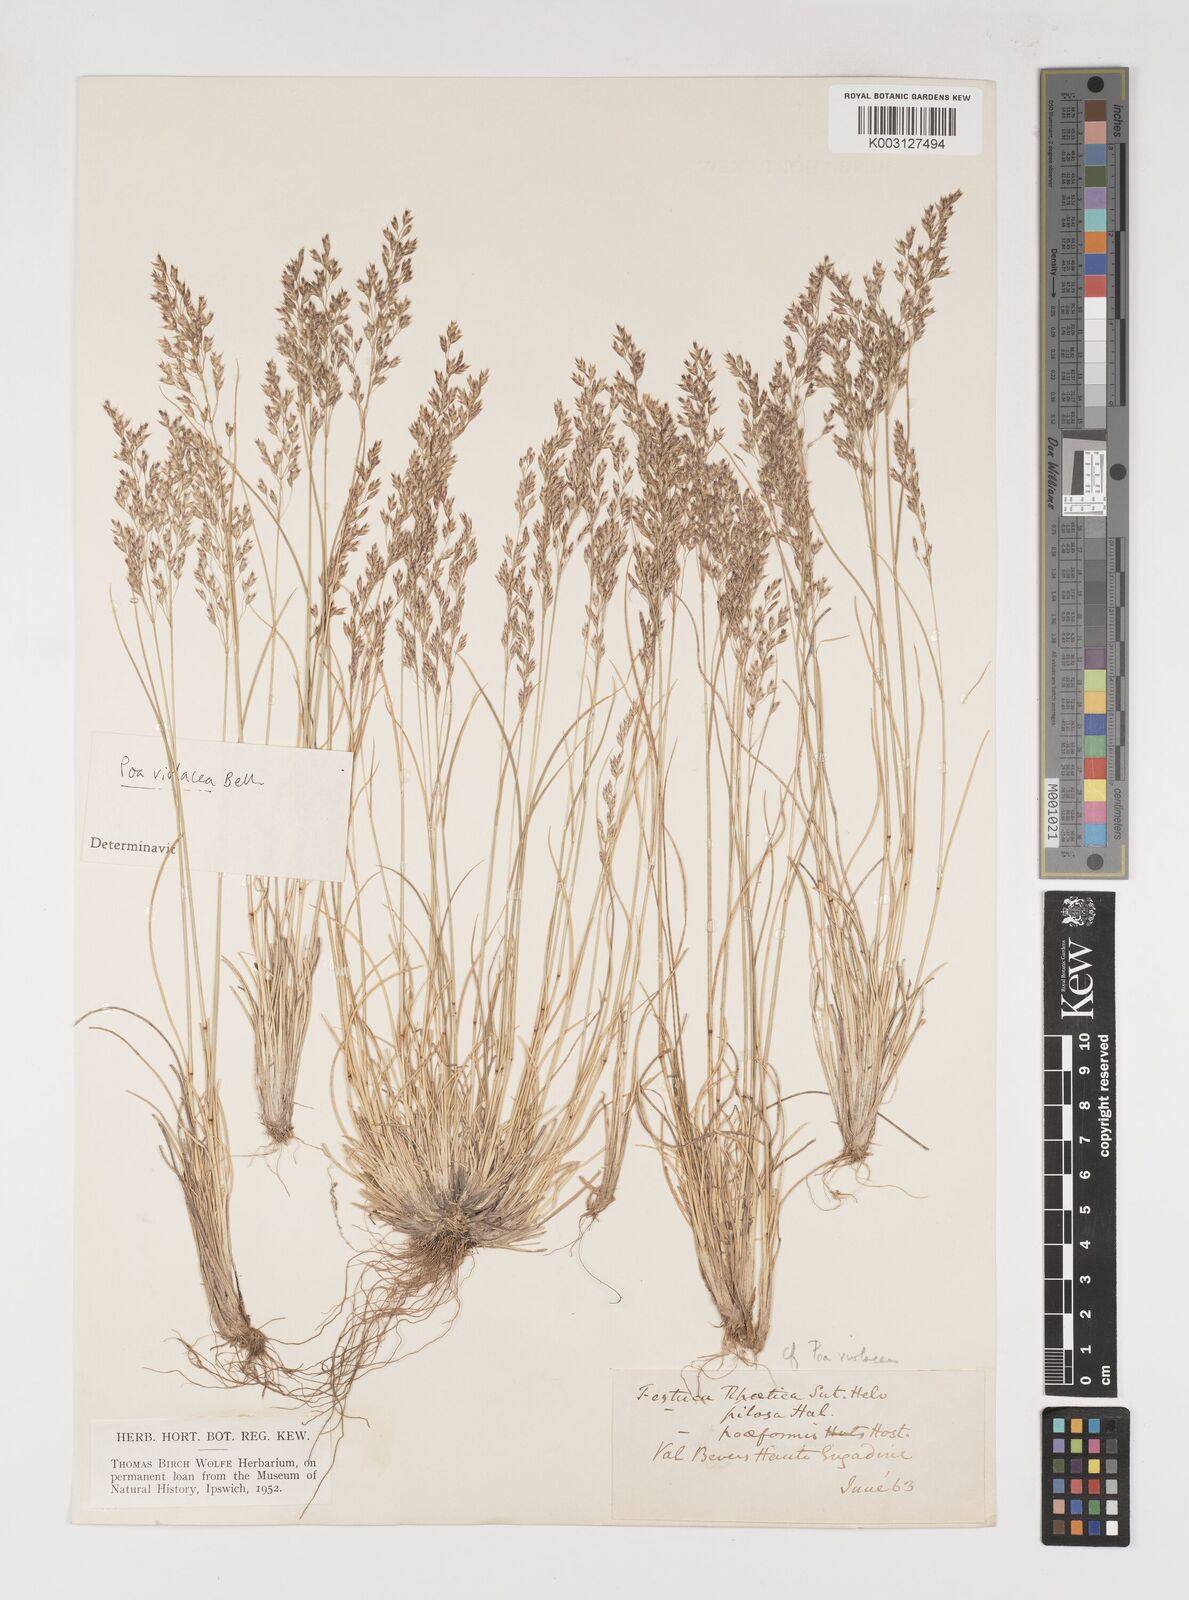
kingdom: Plantae
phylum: Tracheophyta
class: Liliopsida
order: Poales
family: Poaceae
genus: Bellardiochloa
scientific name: Bellardiochloa variegata
